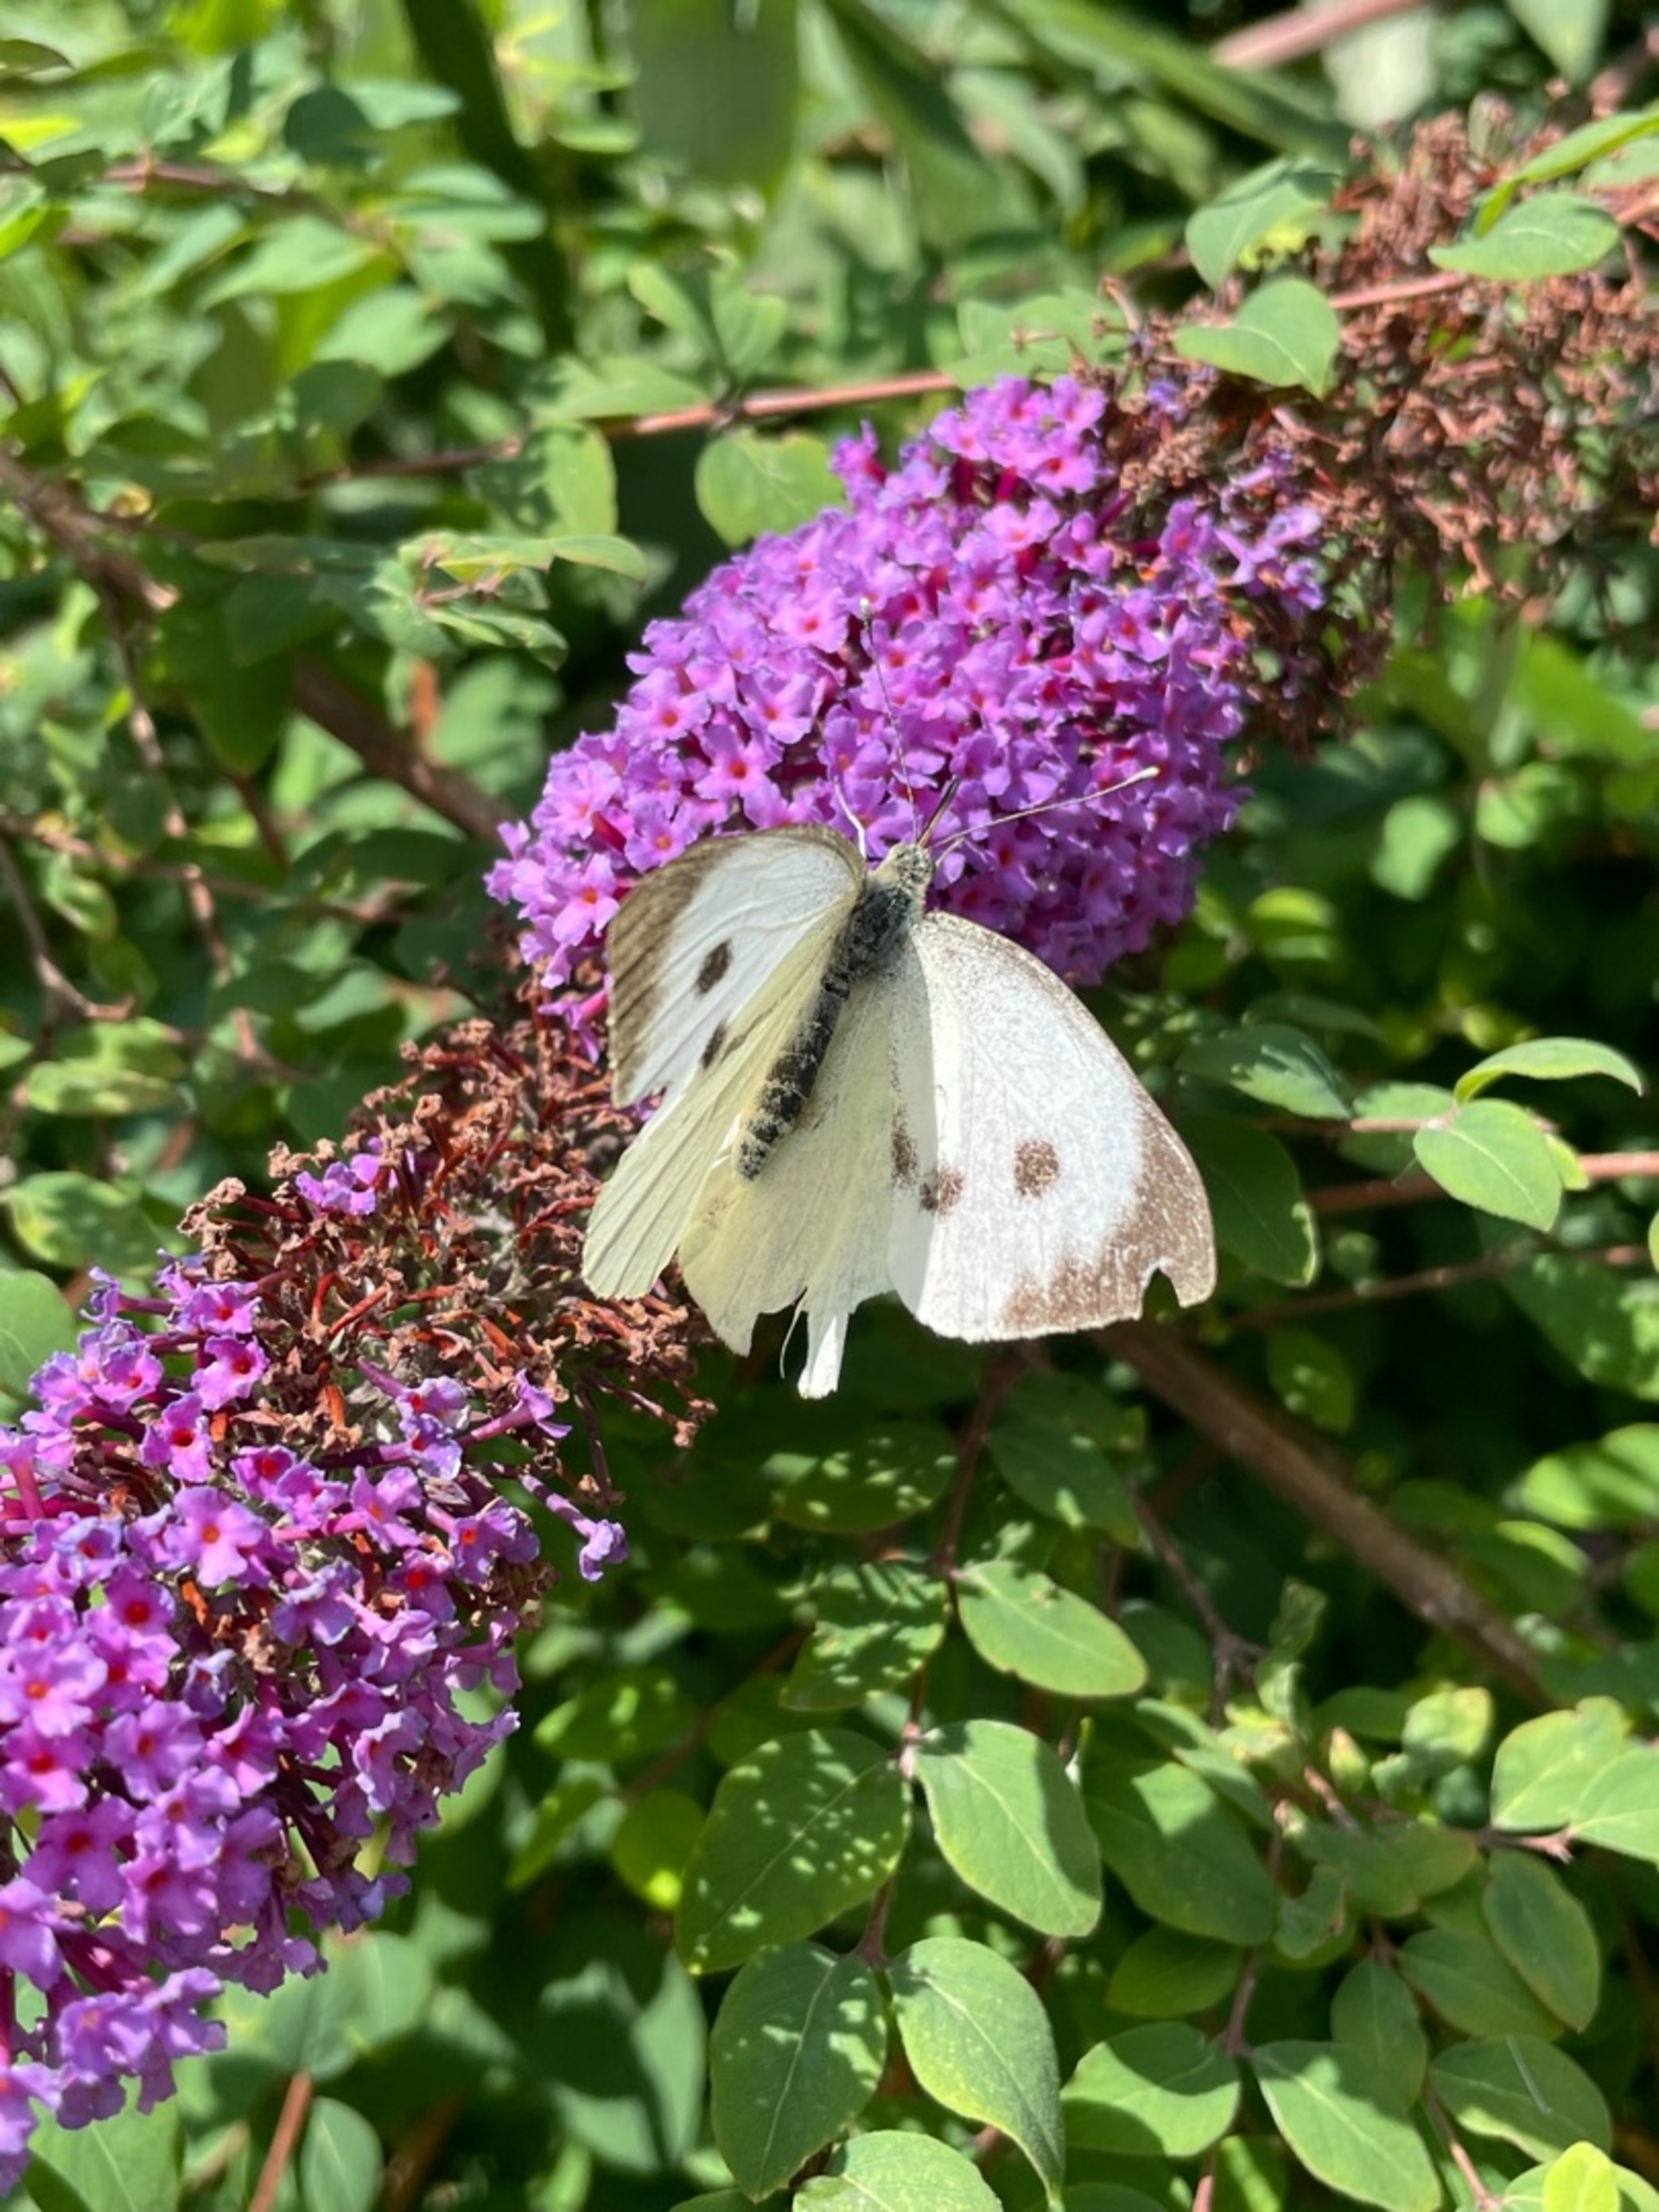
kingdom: Animalia
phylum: Arthropoda
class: Insecta
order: Lepidoptera
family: Pieridae
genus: Pieris
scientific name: Pieris brassicae
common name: Stor kålsommerfugl
